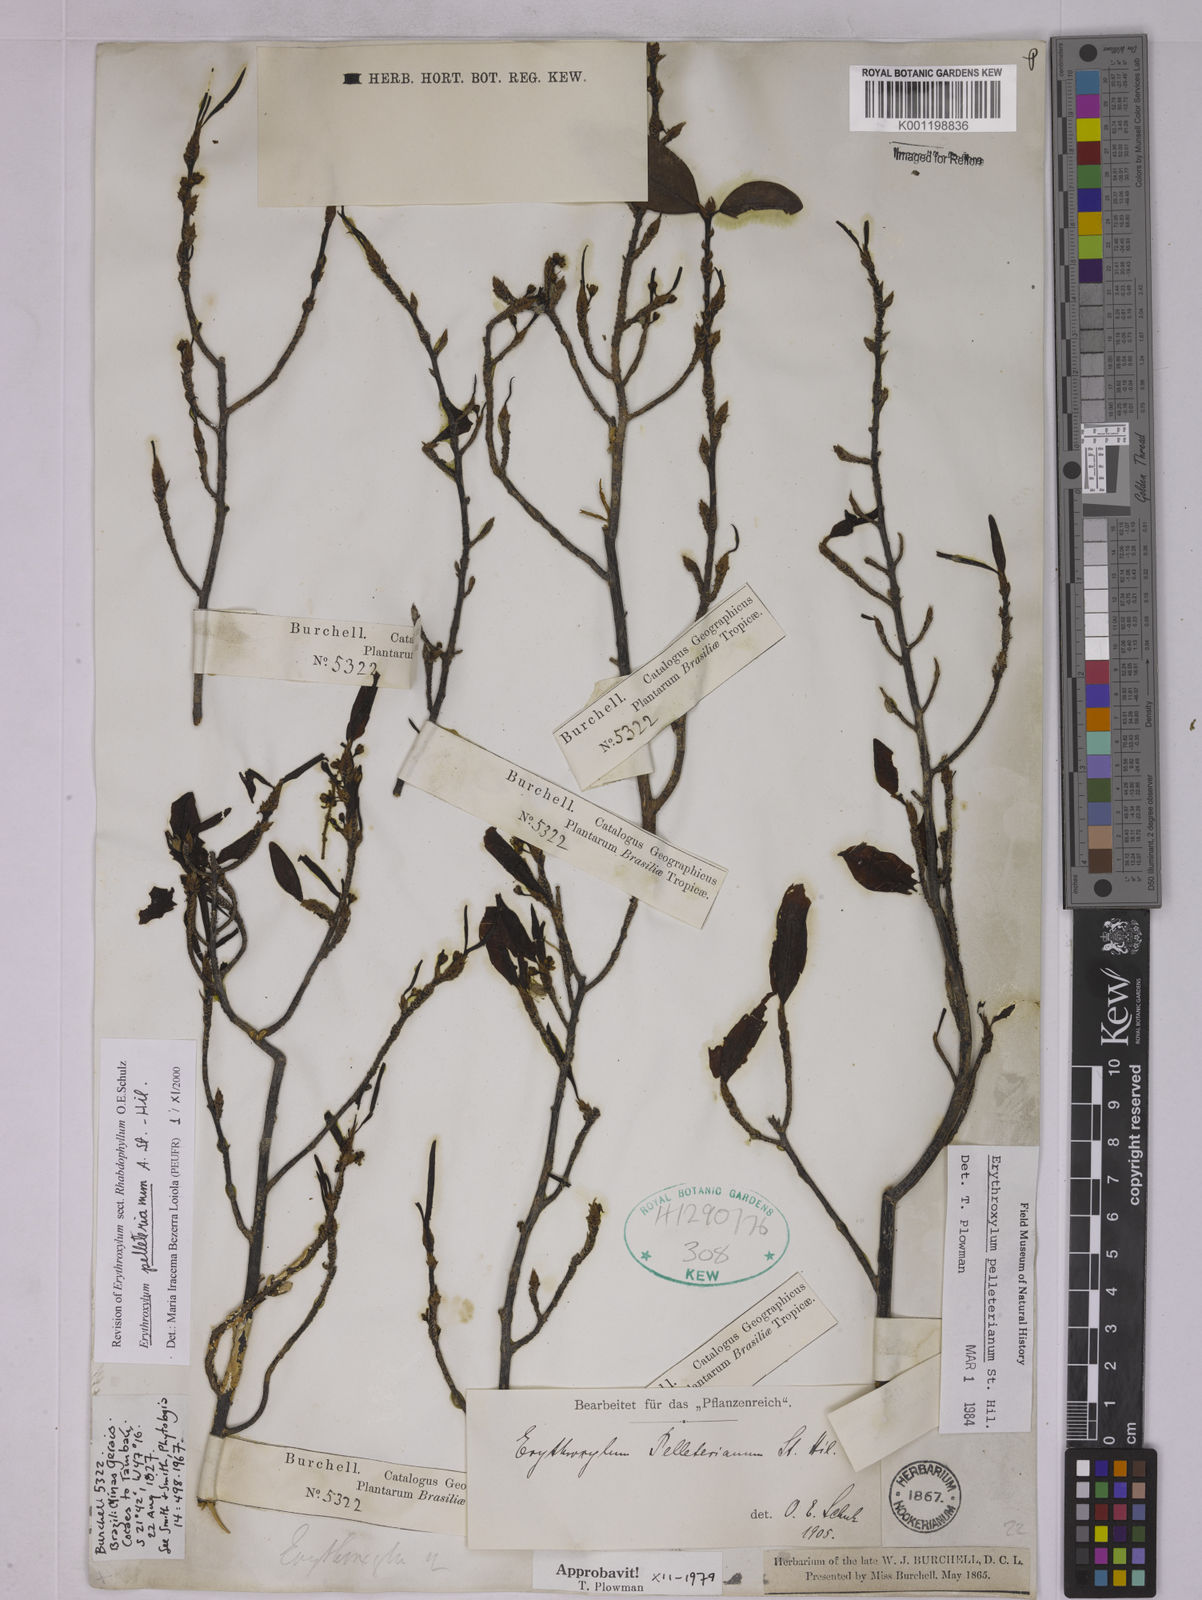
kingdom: Plantae
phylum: Tracheophyta
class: Magnoliopsida
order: Malpighiales
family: Erythroxylaceae
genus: Erythroxylum
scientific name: Erythroxylum pelleterianum
